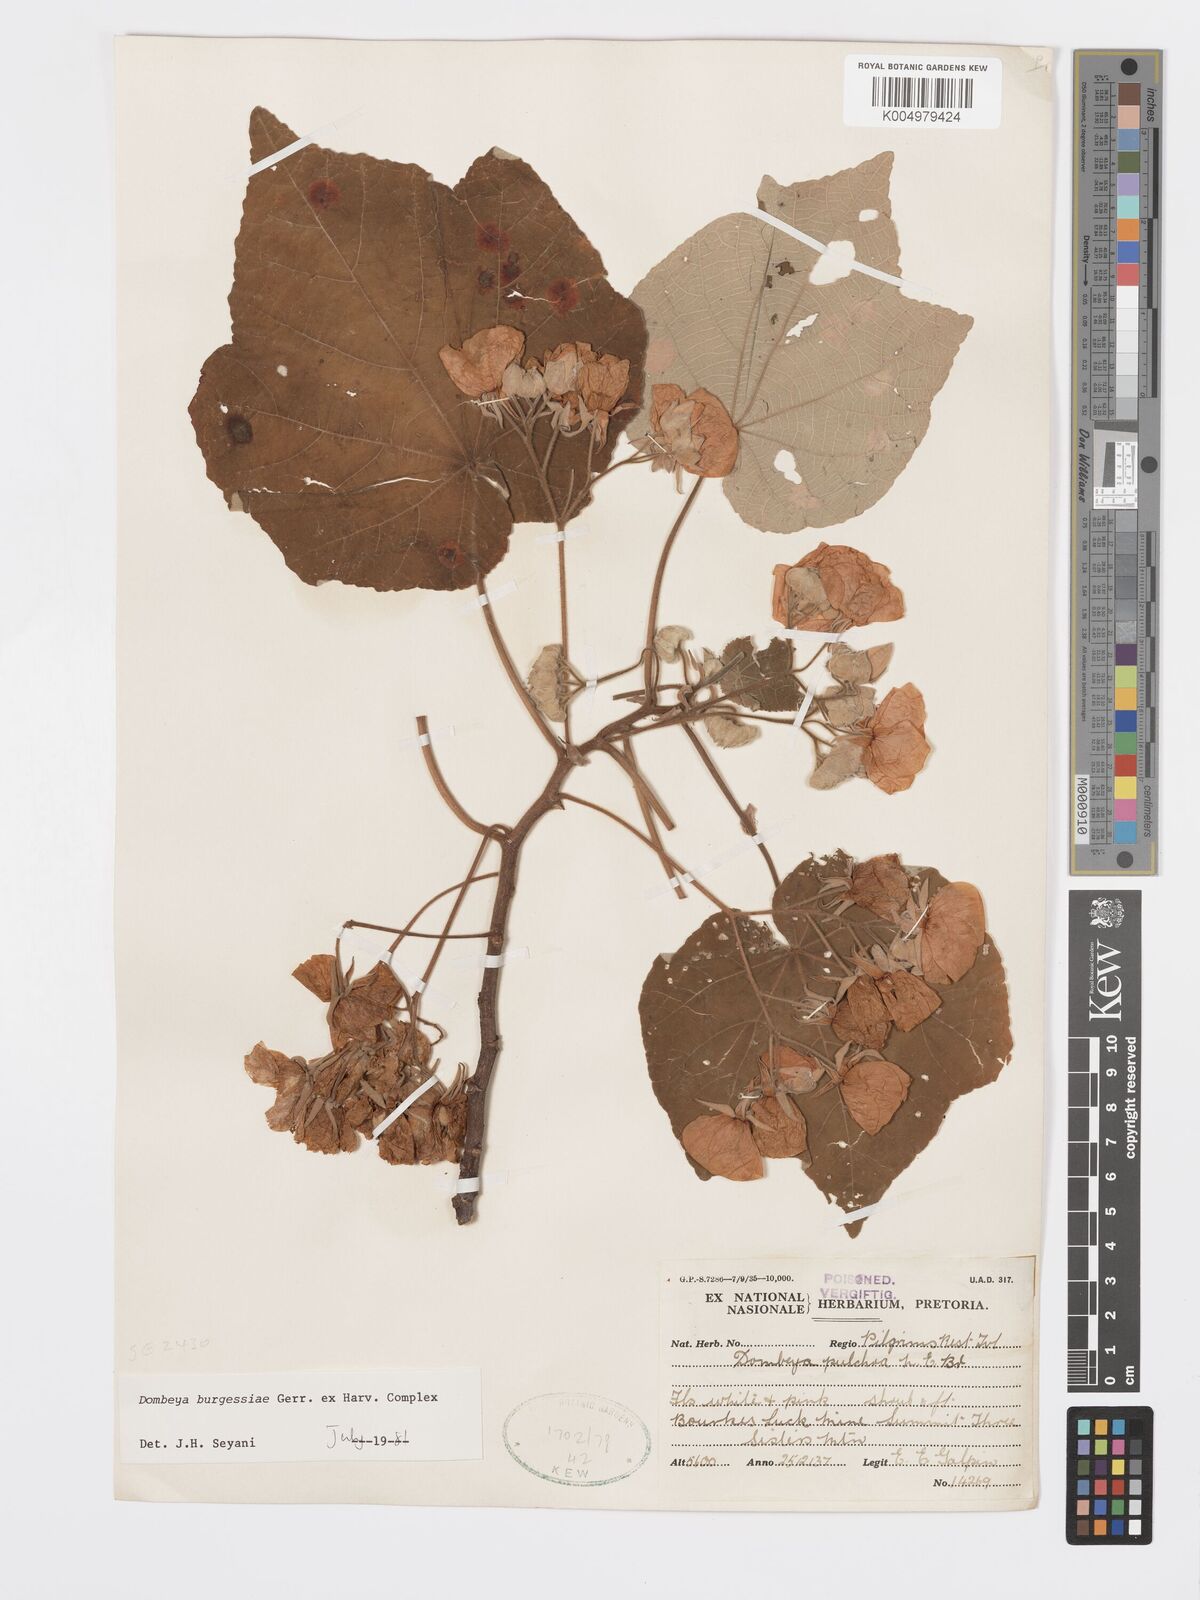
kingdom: Plantae
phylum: Tracheophyta
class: Magnoliopsida
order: Malvales
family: Malvaceae
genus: Dombeya
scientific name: Dombeya burgessiae
